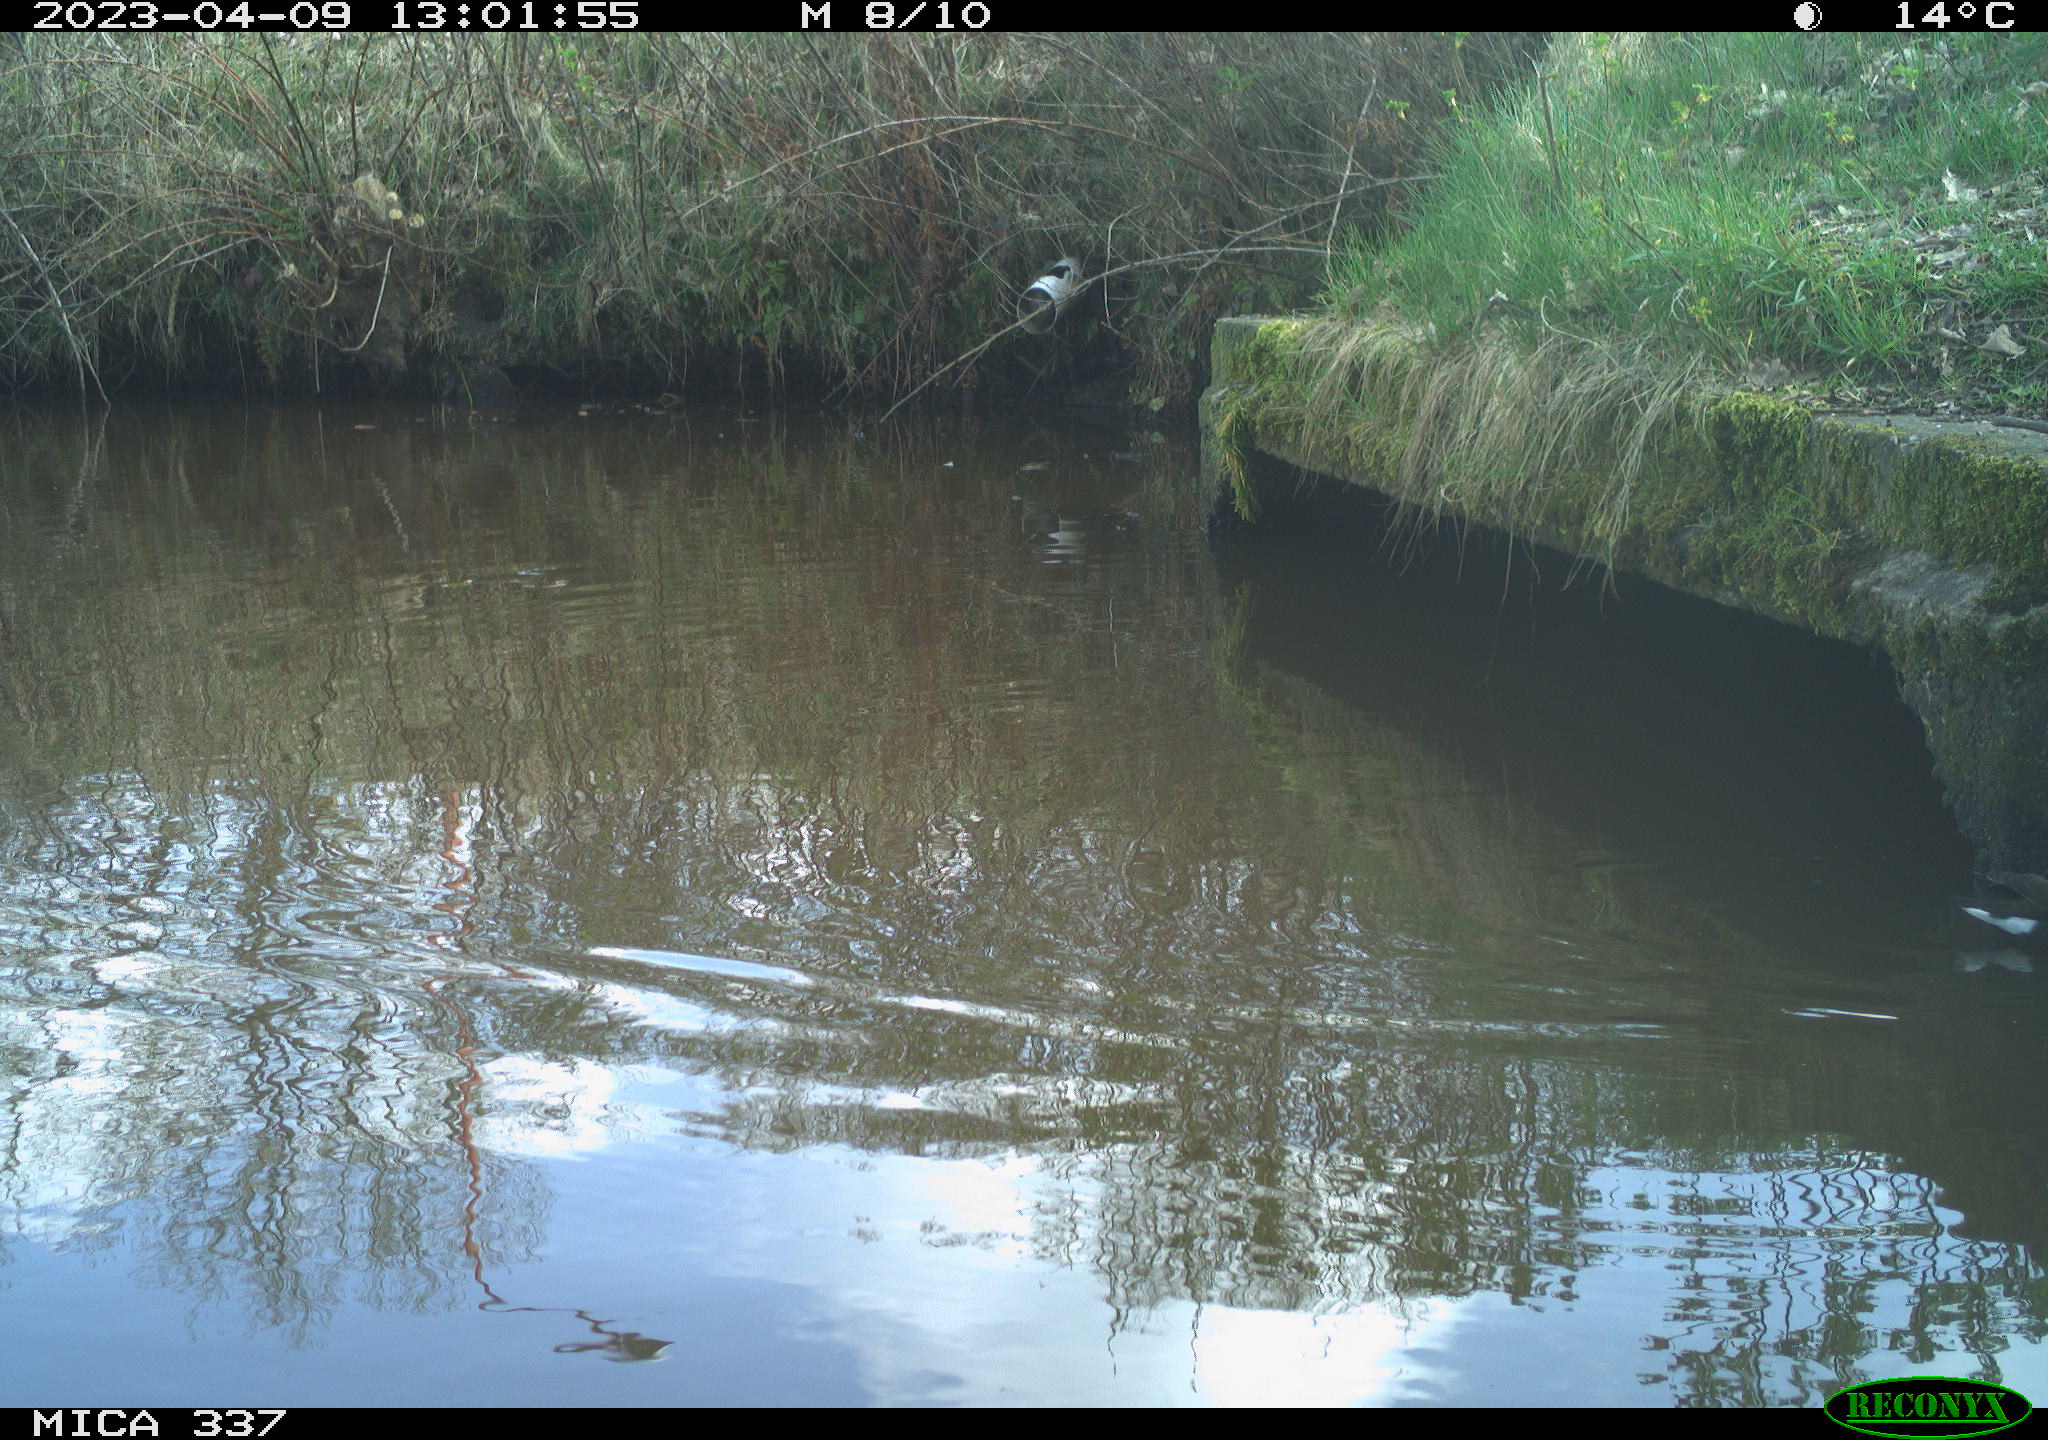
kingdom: Animalia
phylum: Chordata
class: Aves
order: Gruiformes
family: Rallidae
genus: Gallinula
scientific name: Gallinula chloropus
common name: Common moorhen
